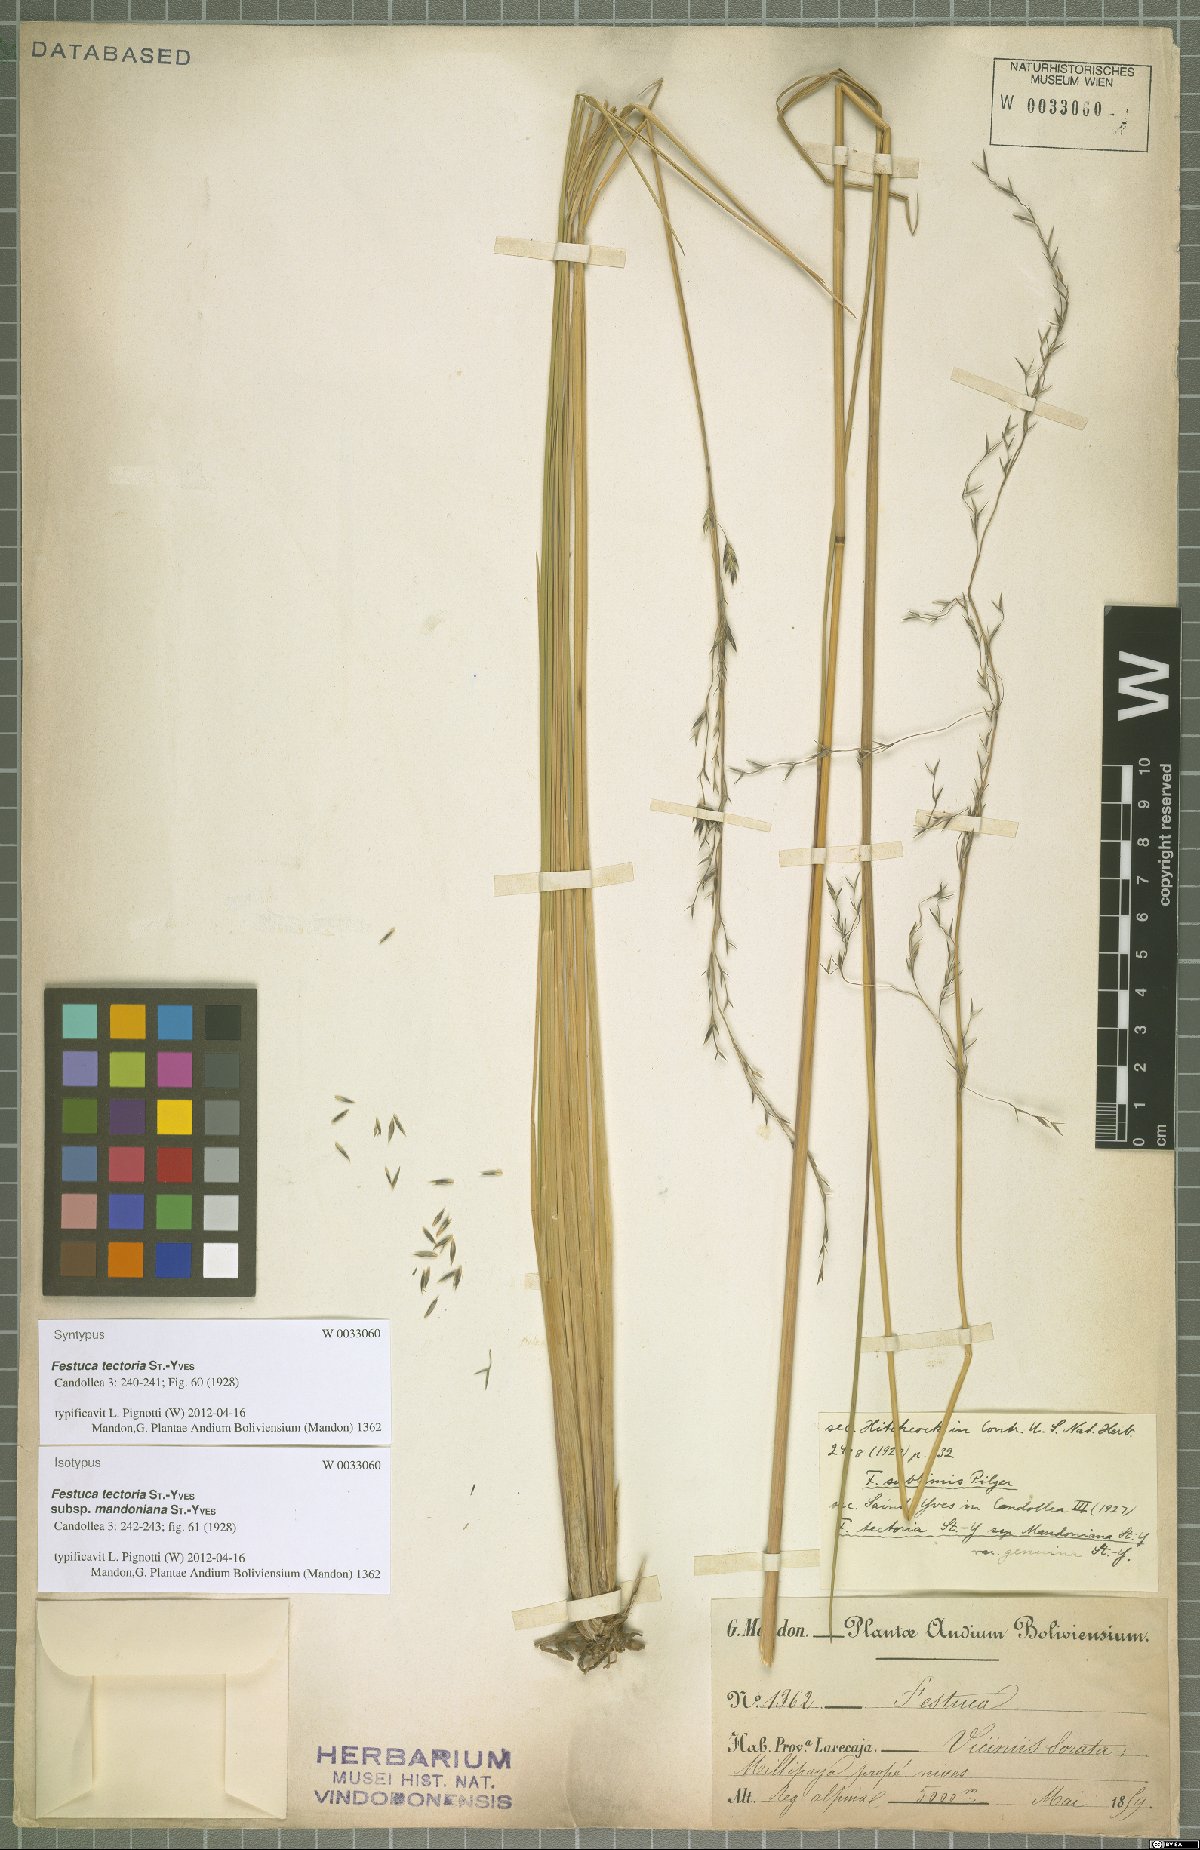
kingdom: Plantae
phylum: Tracheophyta
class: Liliopsida
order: Poales
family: Poaceae
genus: Festuca
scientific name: Festuca rigescens
